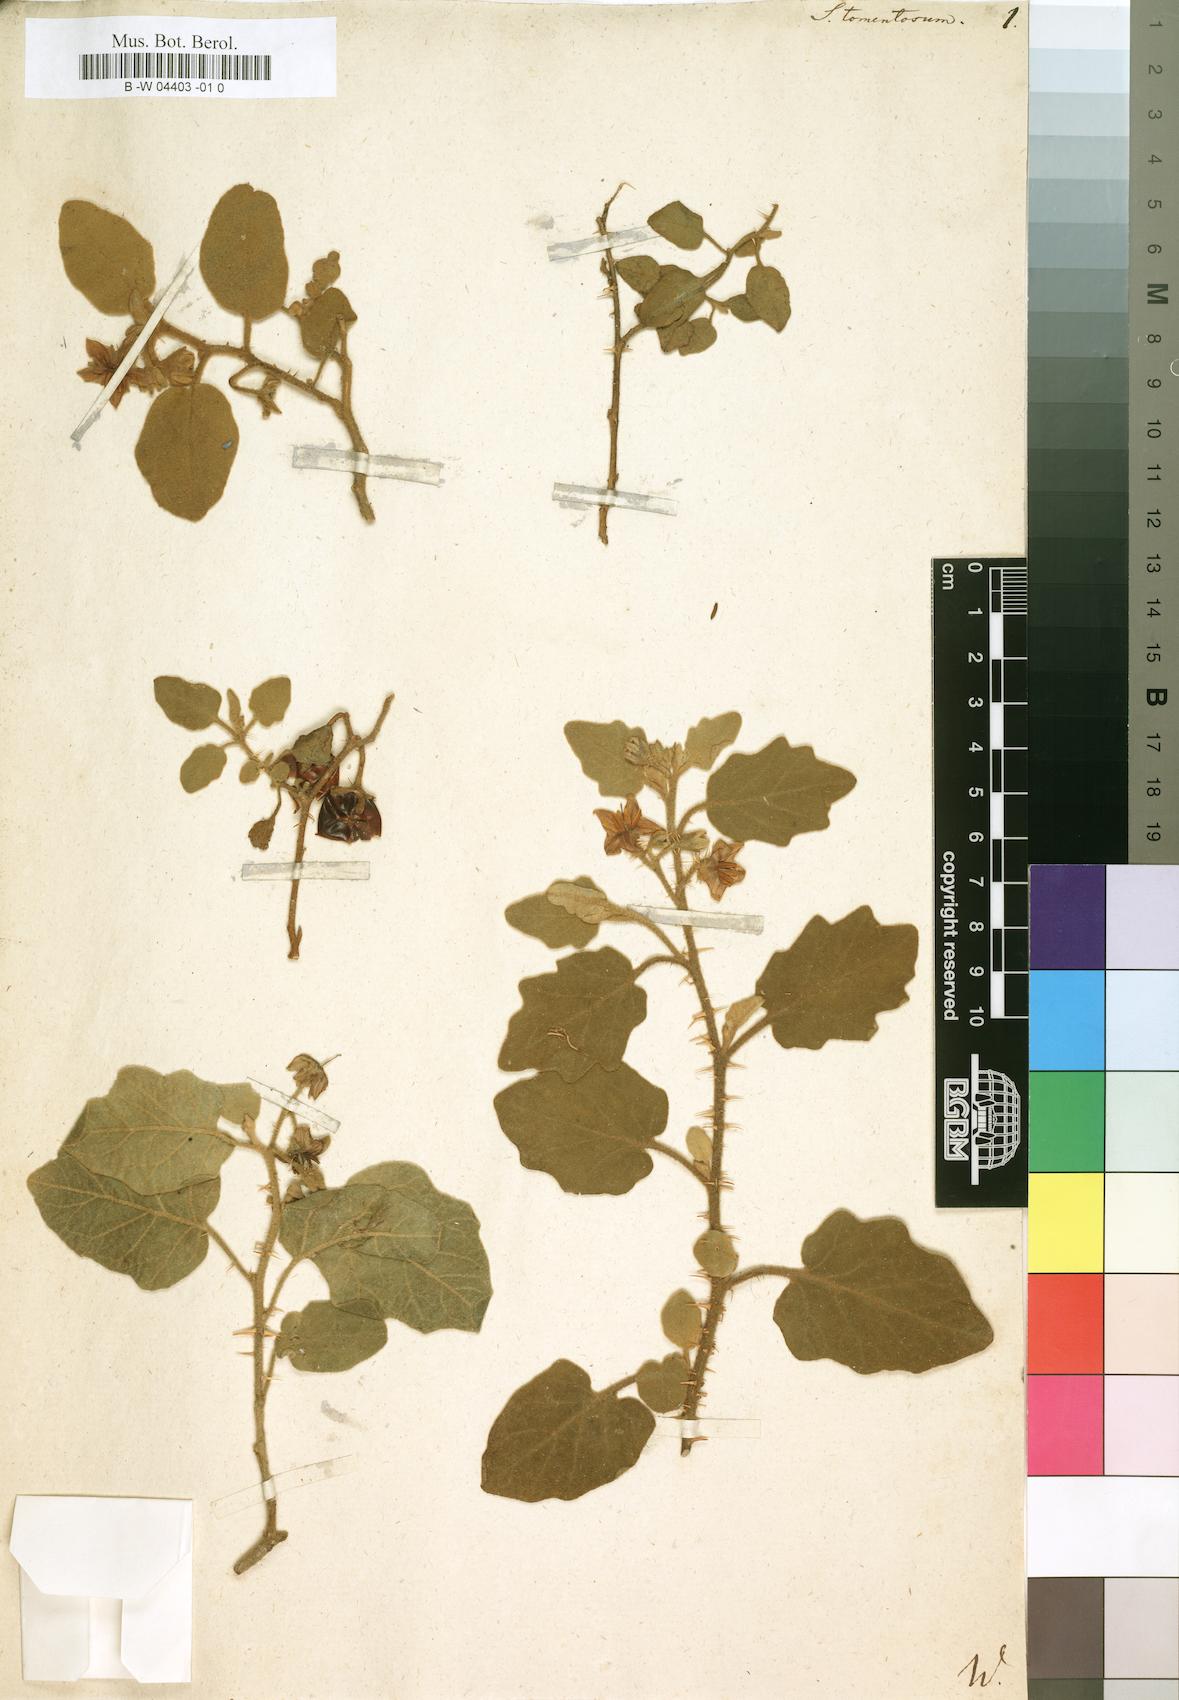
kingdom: Plantae
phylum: Tracheophyta
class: Magnoliopsida
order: Solanales
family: Solanaceae
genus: Solanum
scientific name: Solanum tomentosum
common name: Wild aubergine
